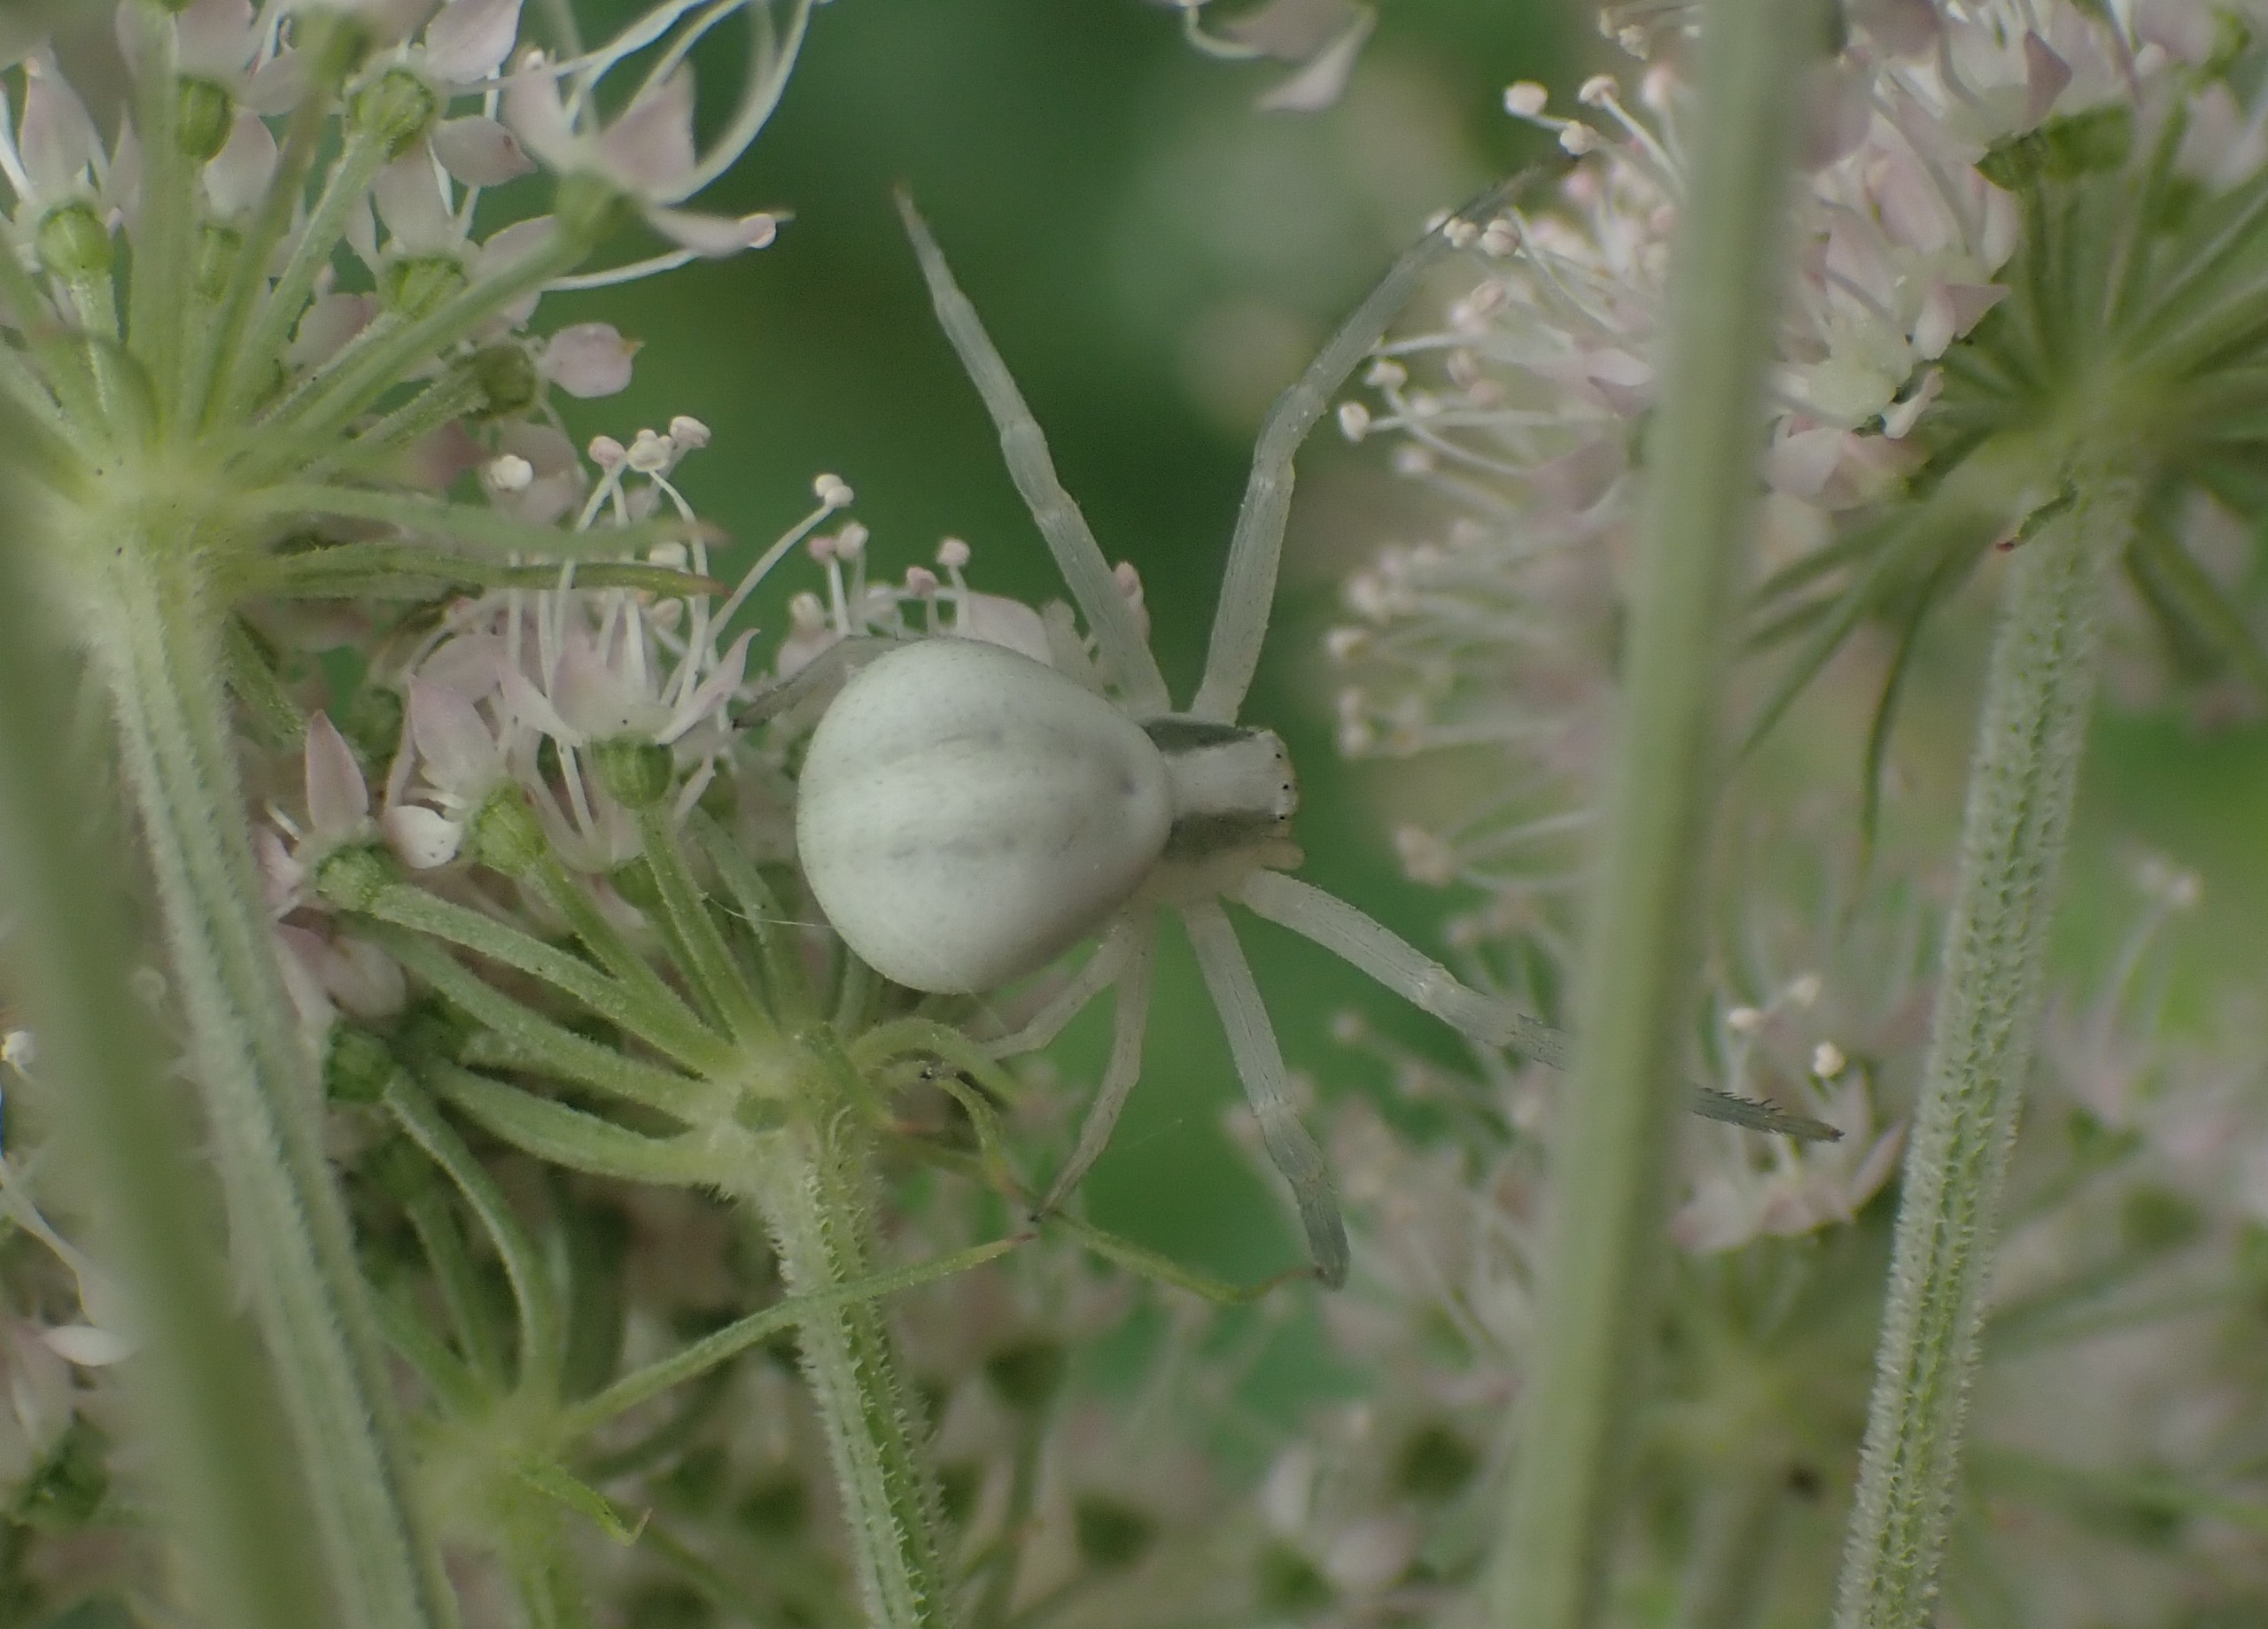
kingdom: Animalia
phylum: Arthropoda
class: Arachnida
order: Araneae
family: Thomisidae
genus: Misumena
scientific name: Misumena vatia
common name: Kamæleonedderkop
